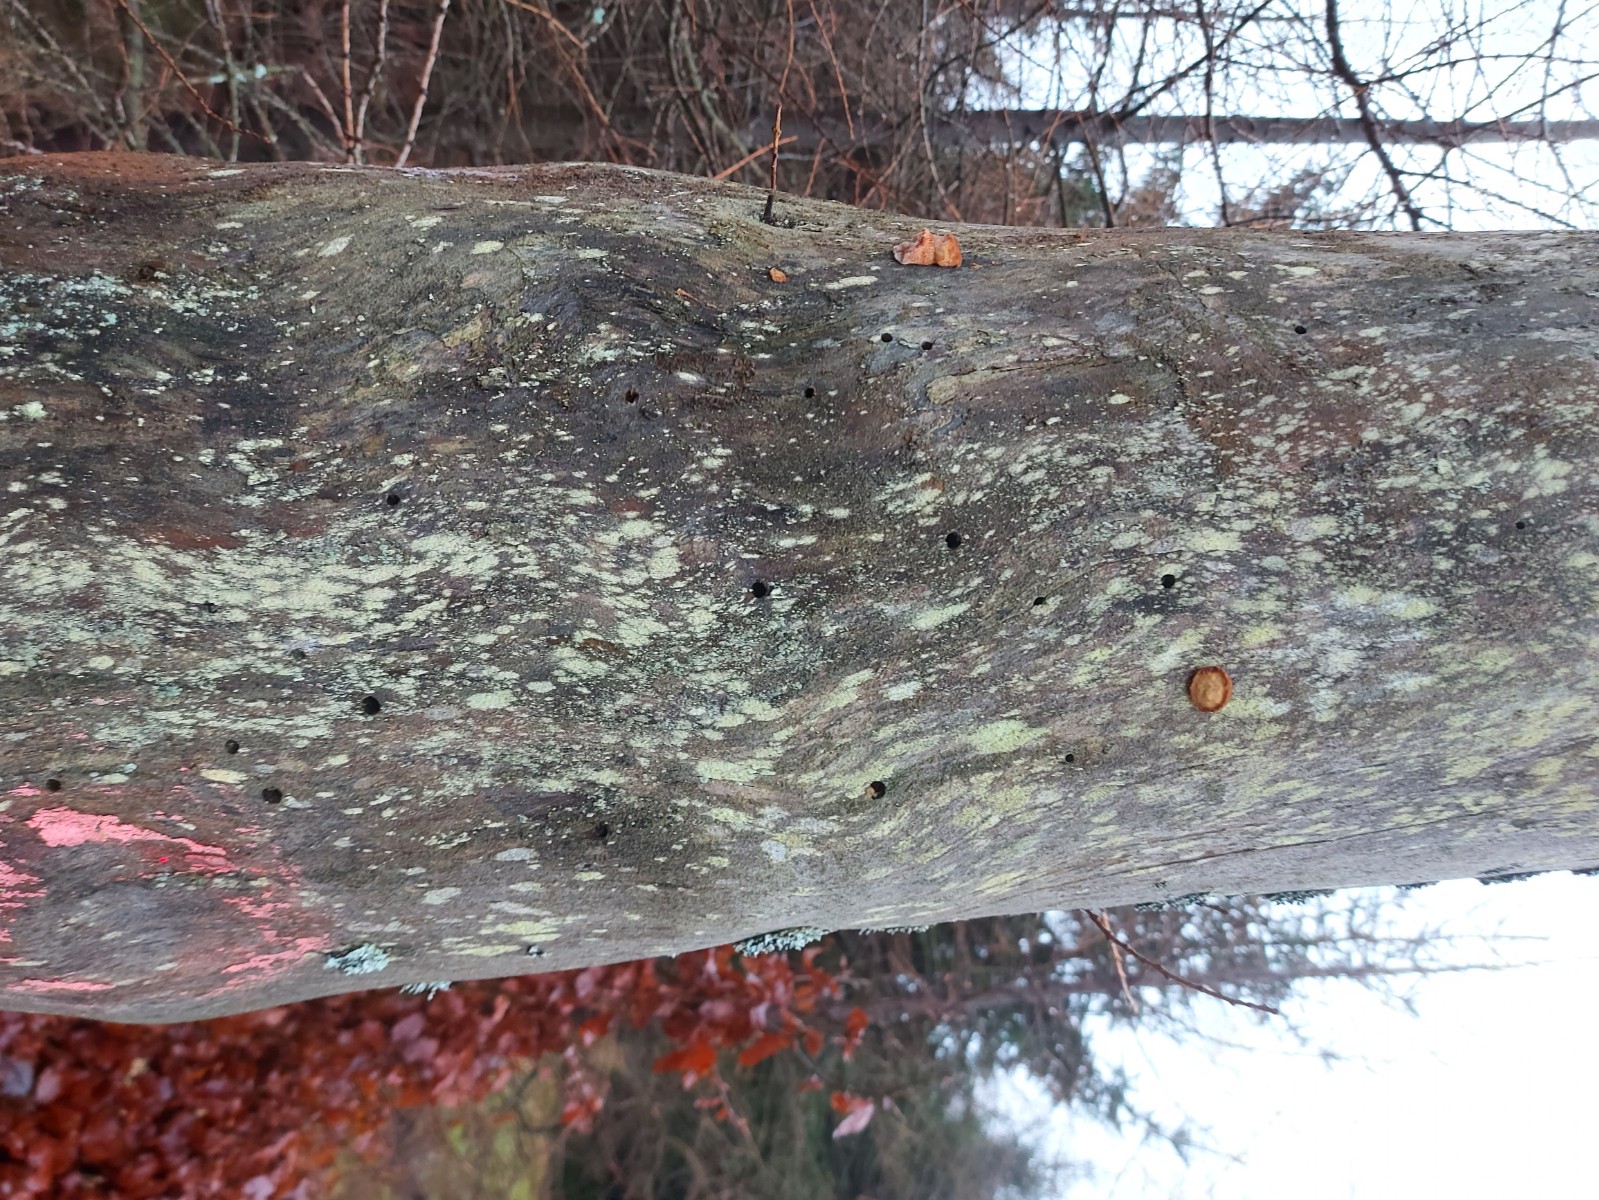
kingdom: Fungi
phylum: Basidiomycota
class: Agaricomycetes
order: Polyporales
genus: Fuscopostia
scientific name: Fuscopostia fragilis
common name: brunende kødporesvamp
